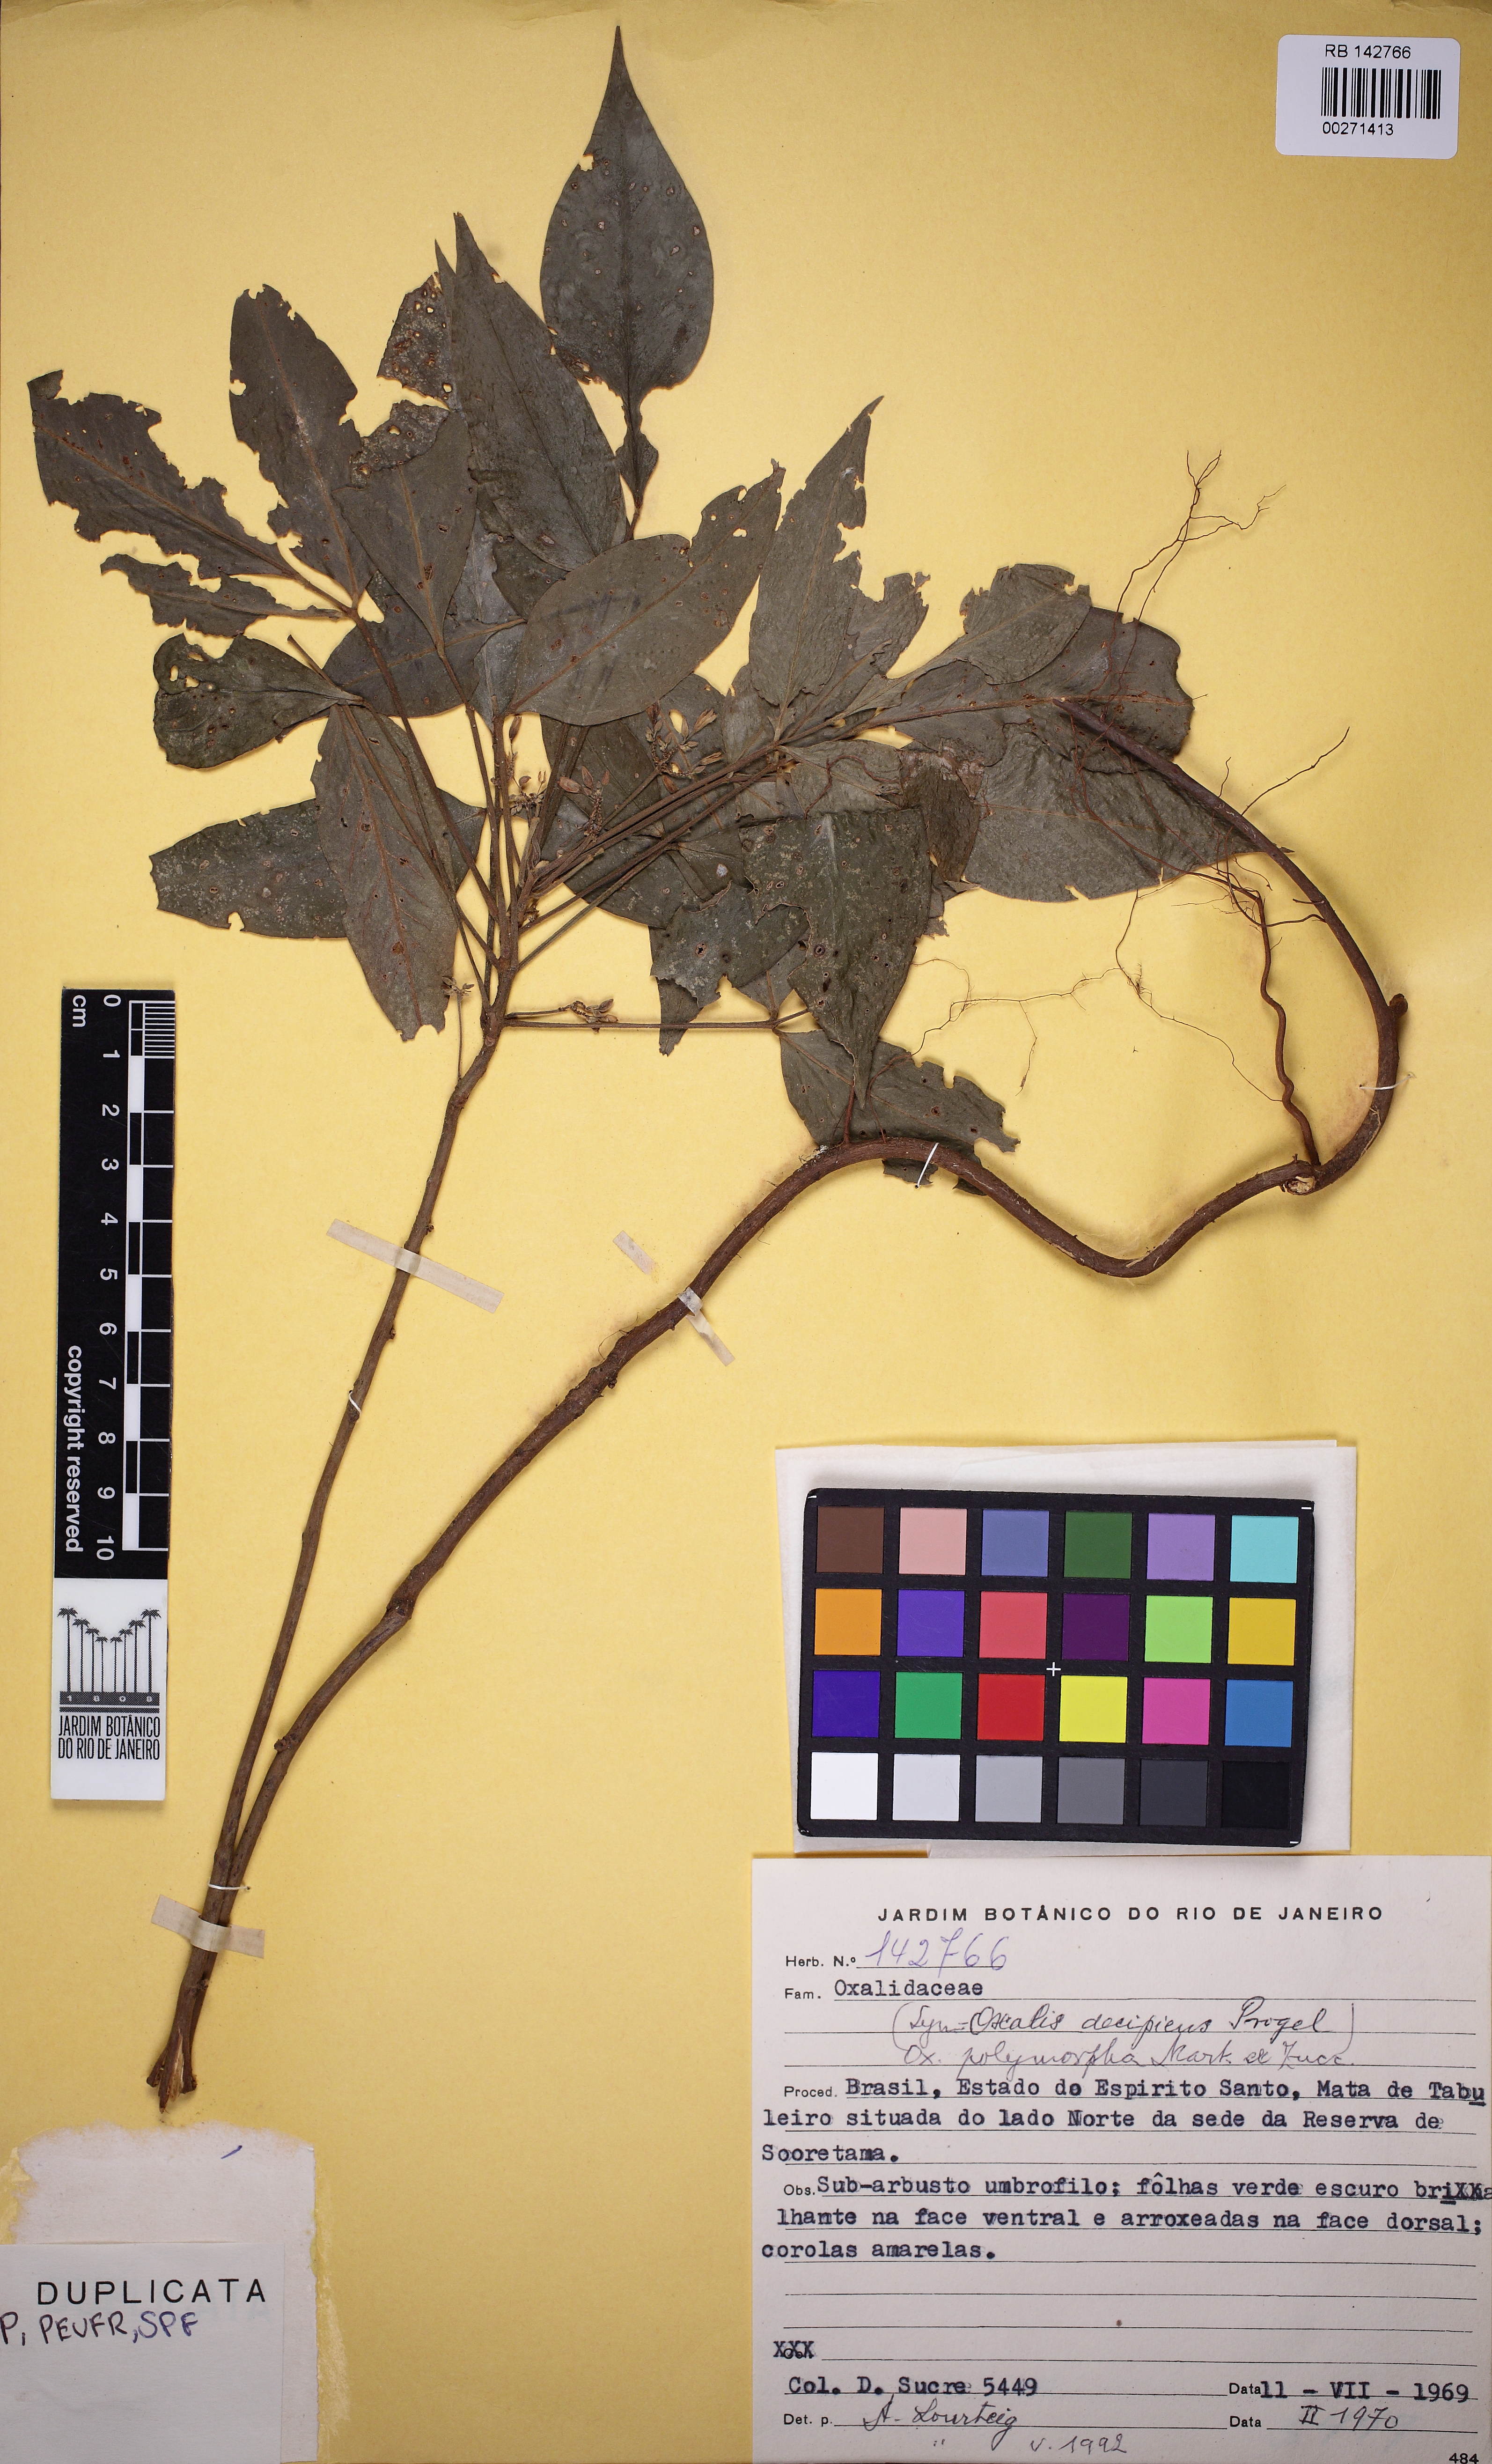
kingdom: Plantae
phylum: Tracheophyta
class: Magnoliopsida
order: Oxalidales
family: Oxalidaceae
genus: Oxalis
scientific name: Oxalis polymorpha
